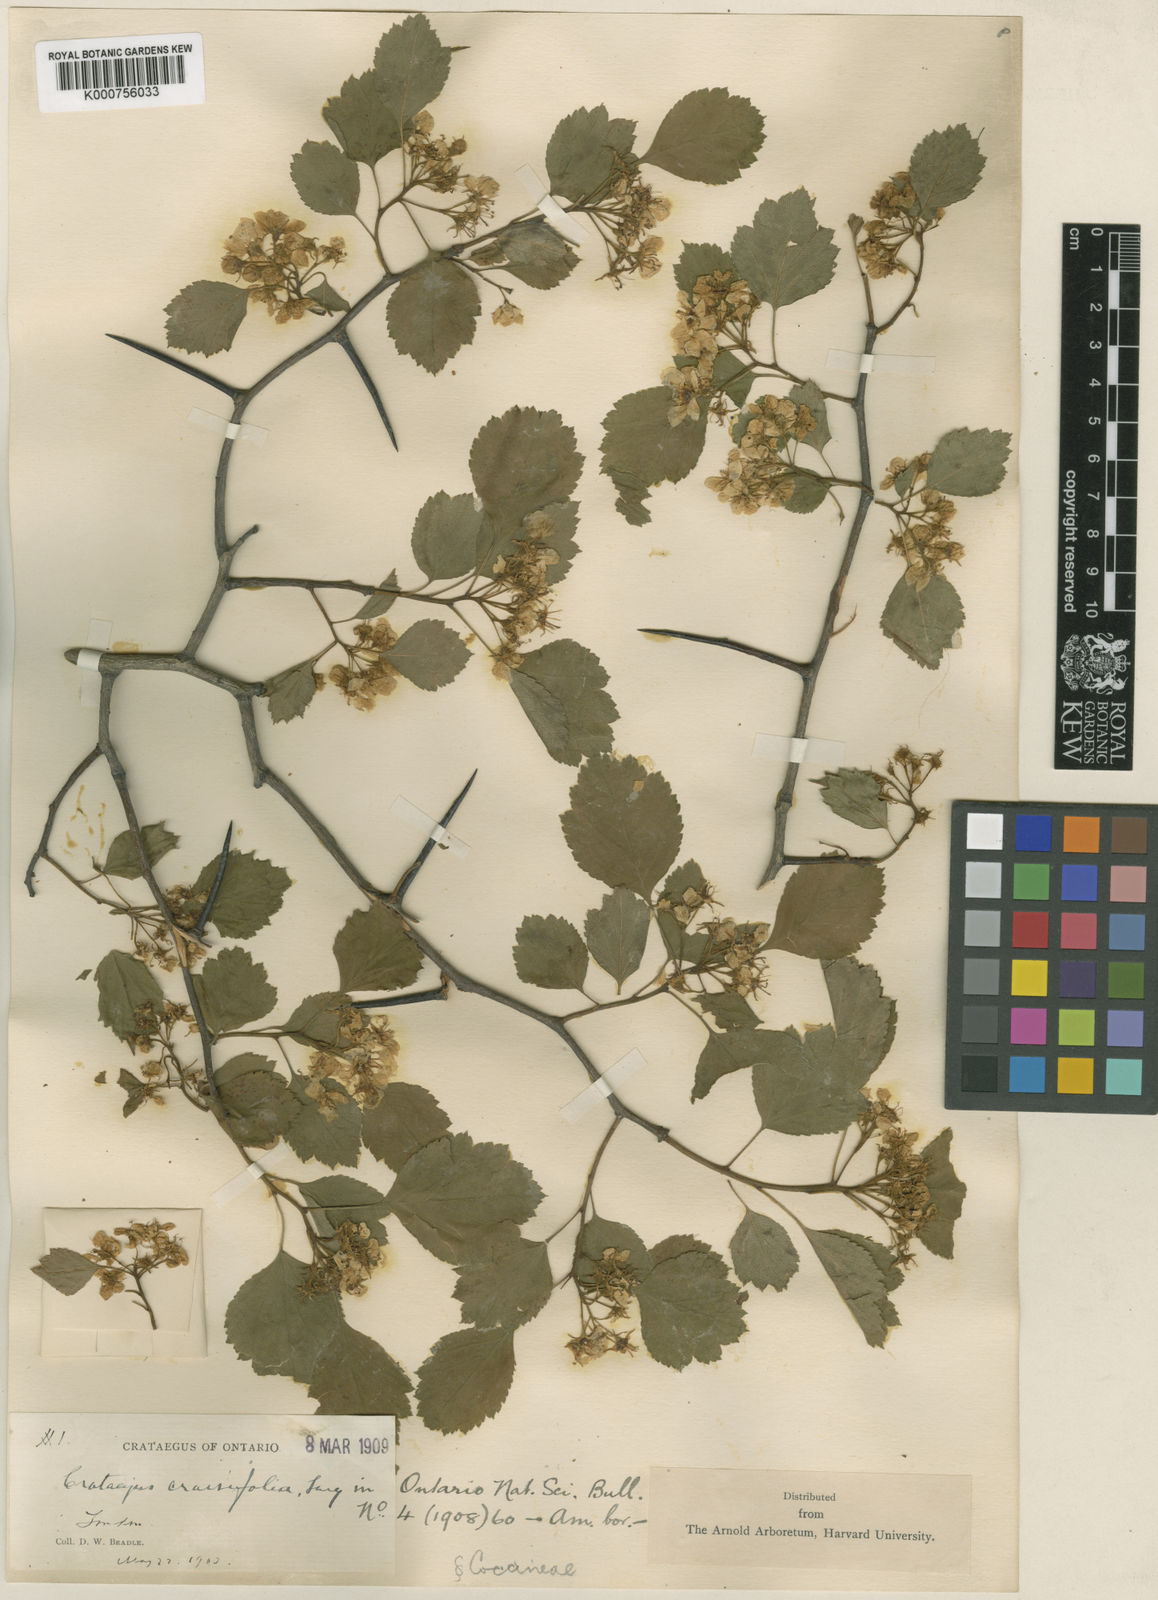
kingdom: Plantae
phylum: Tracheophyta
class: Magnoliopsida
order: Rosales
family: Rosaceae
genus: Crataegus
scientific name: Crataegus dodgei
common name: Dodge's hawthorn
